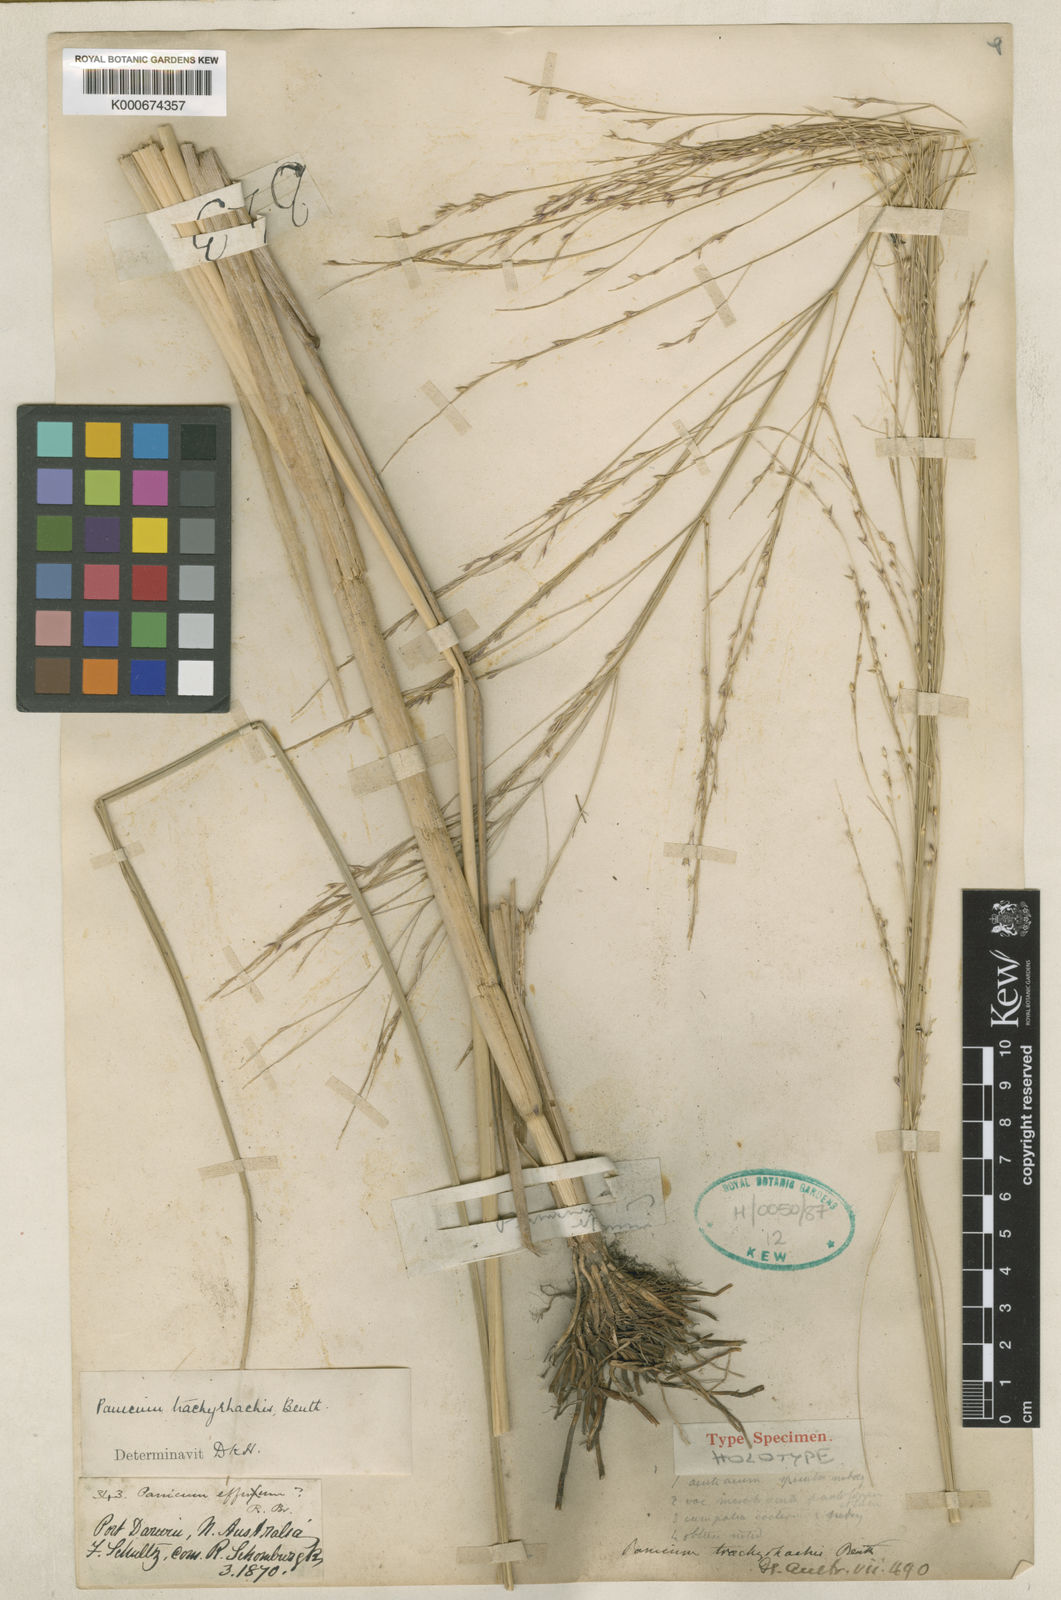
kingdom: Plantae
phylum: Tracheophyta
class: Liliopsida
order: Poales
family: Poaceae
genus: Panicum
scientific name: Panicum trachyrhachis
